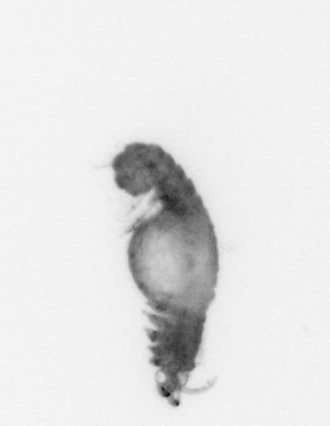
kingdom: Animalia
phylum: Annelida
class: Polychaeta
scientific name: Polychaeta
